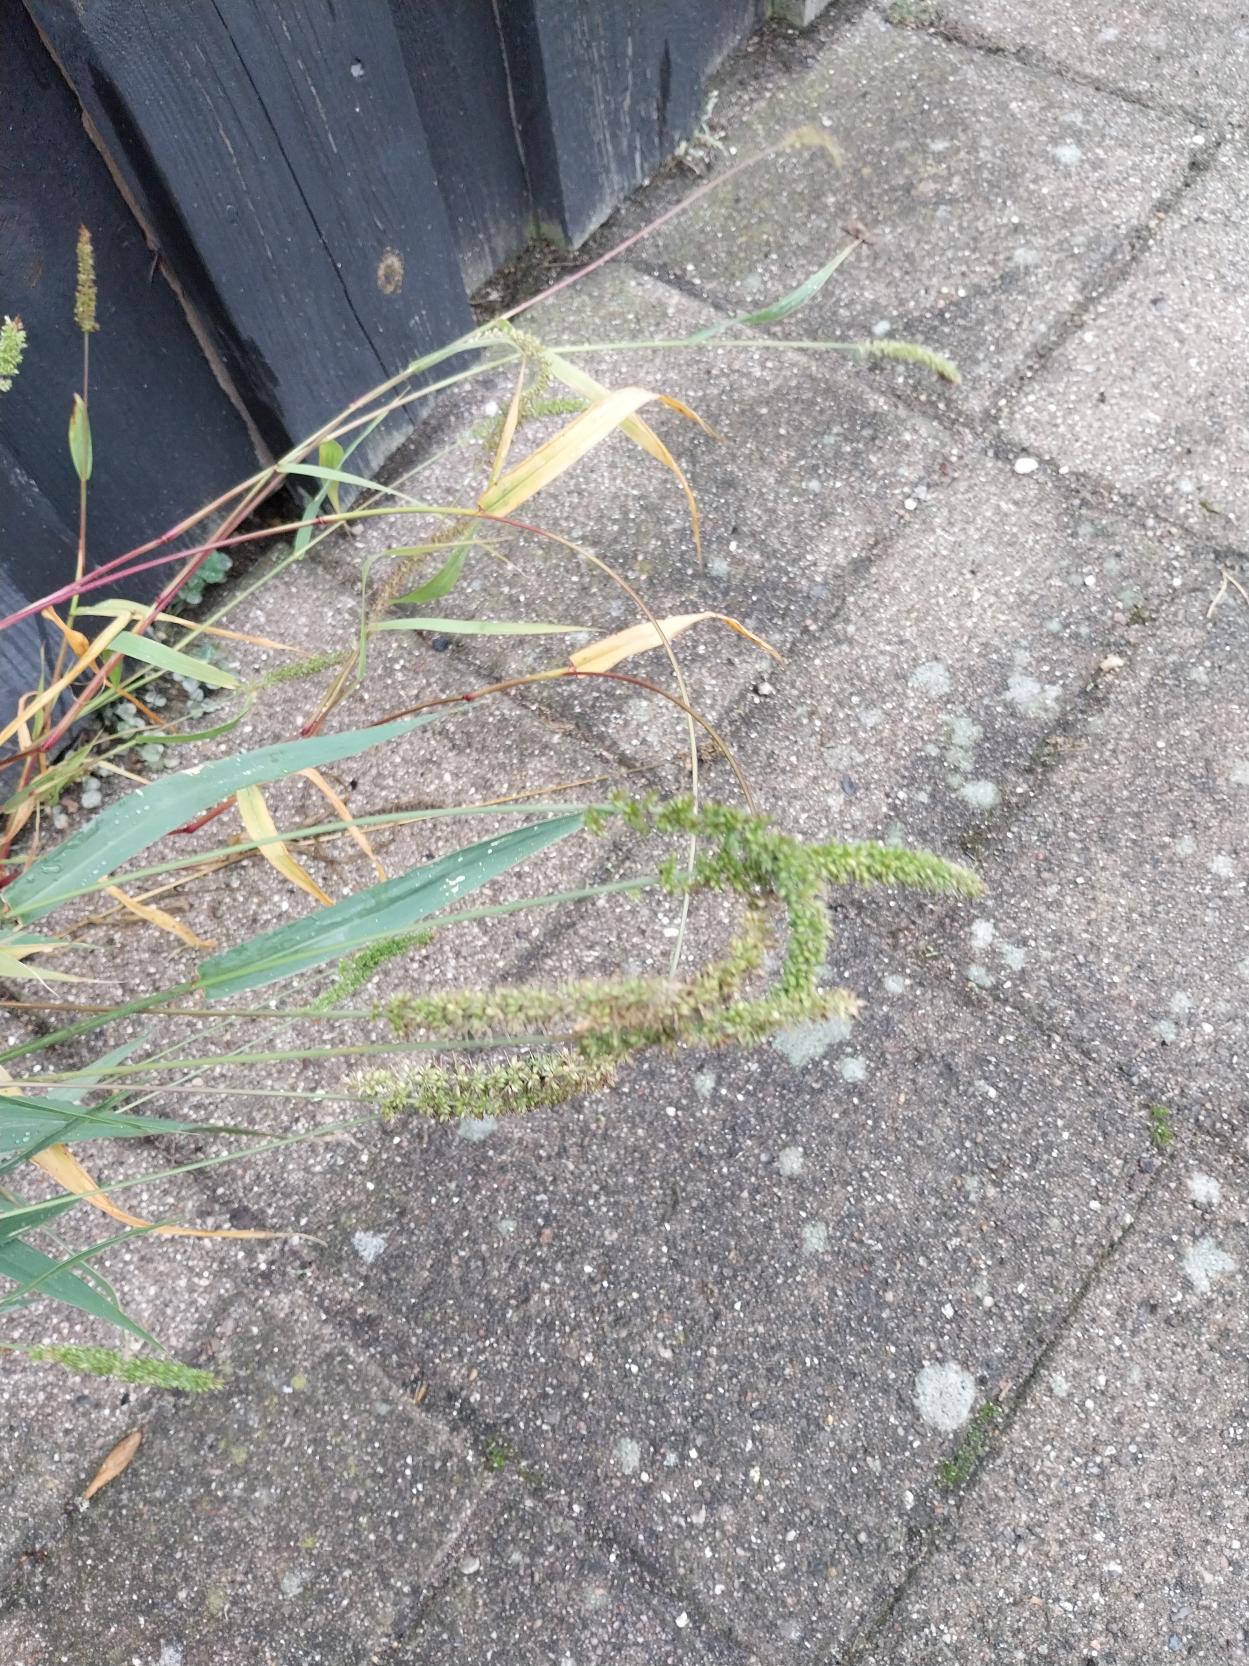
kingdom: Plantae
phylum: Tracheophyta
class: Liliopsida
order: Poales
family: Poaceae
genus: Setaria
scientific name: Setaria verticillata
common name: Krans-skærmaks
